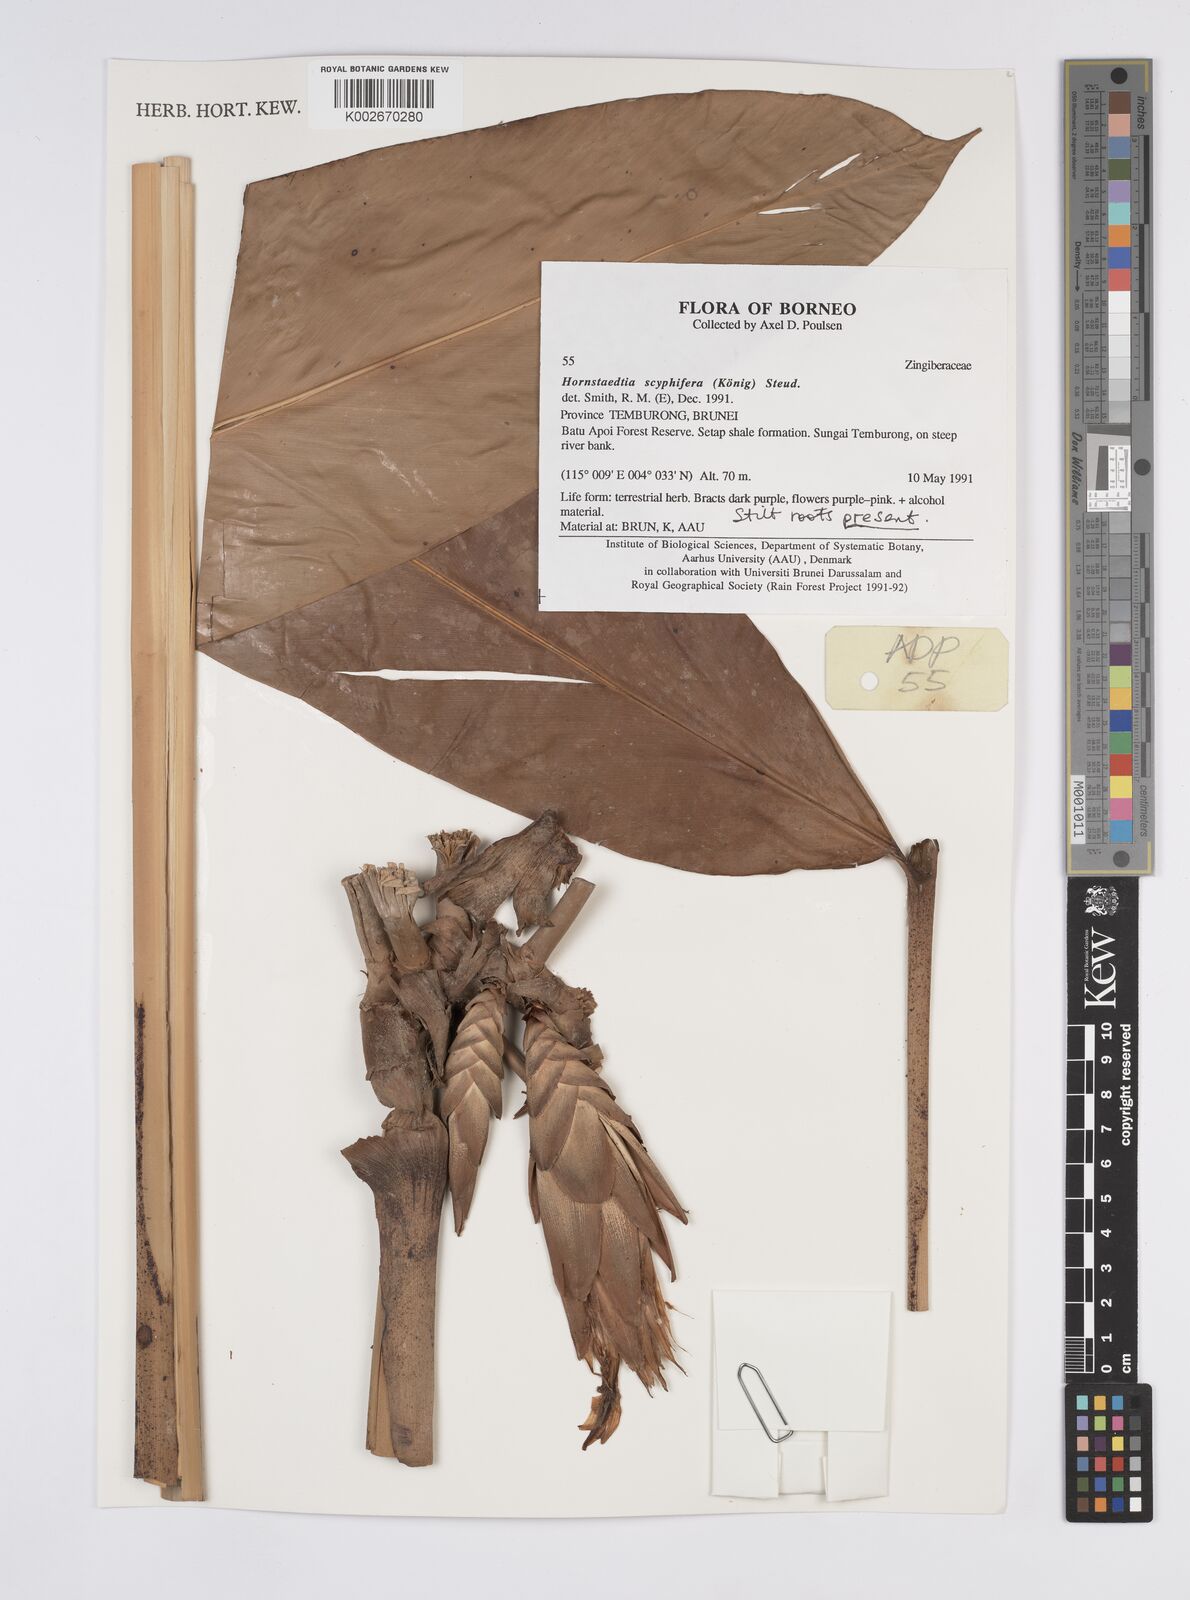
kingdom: Plantae
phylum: Tracheophyta
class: Liliopsida
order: Zingiberales
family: Zingiberaceae
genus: Hornstedtia
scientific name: Hornstedtia scyphifera
